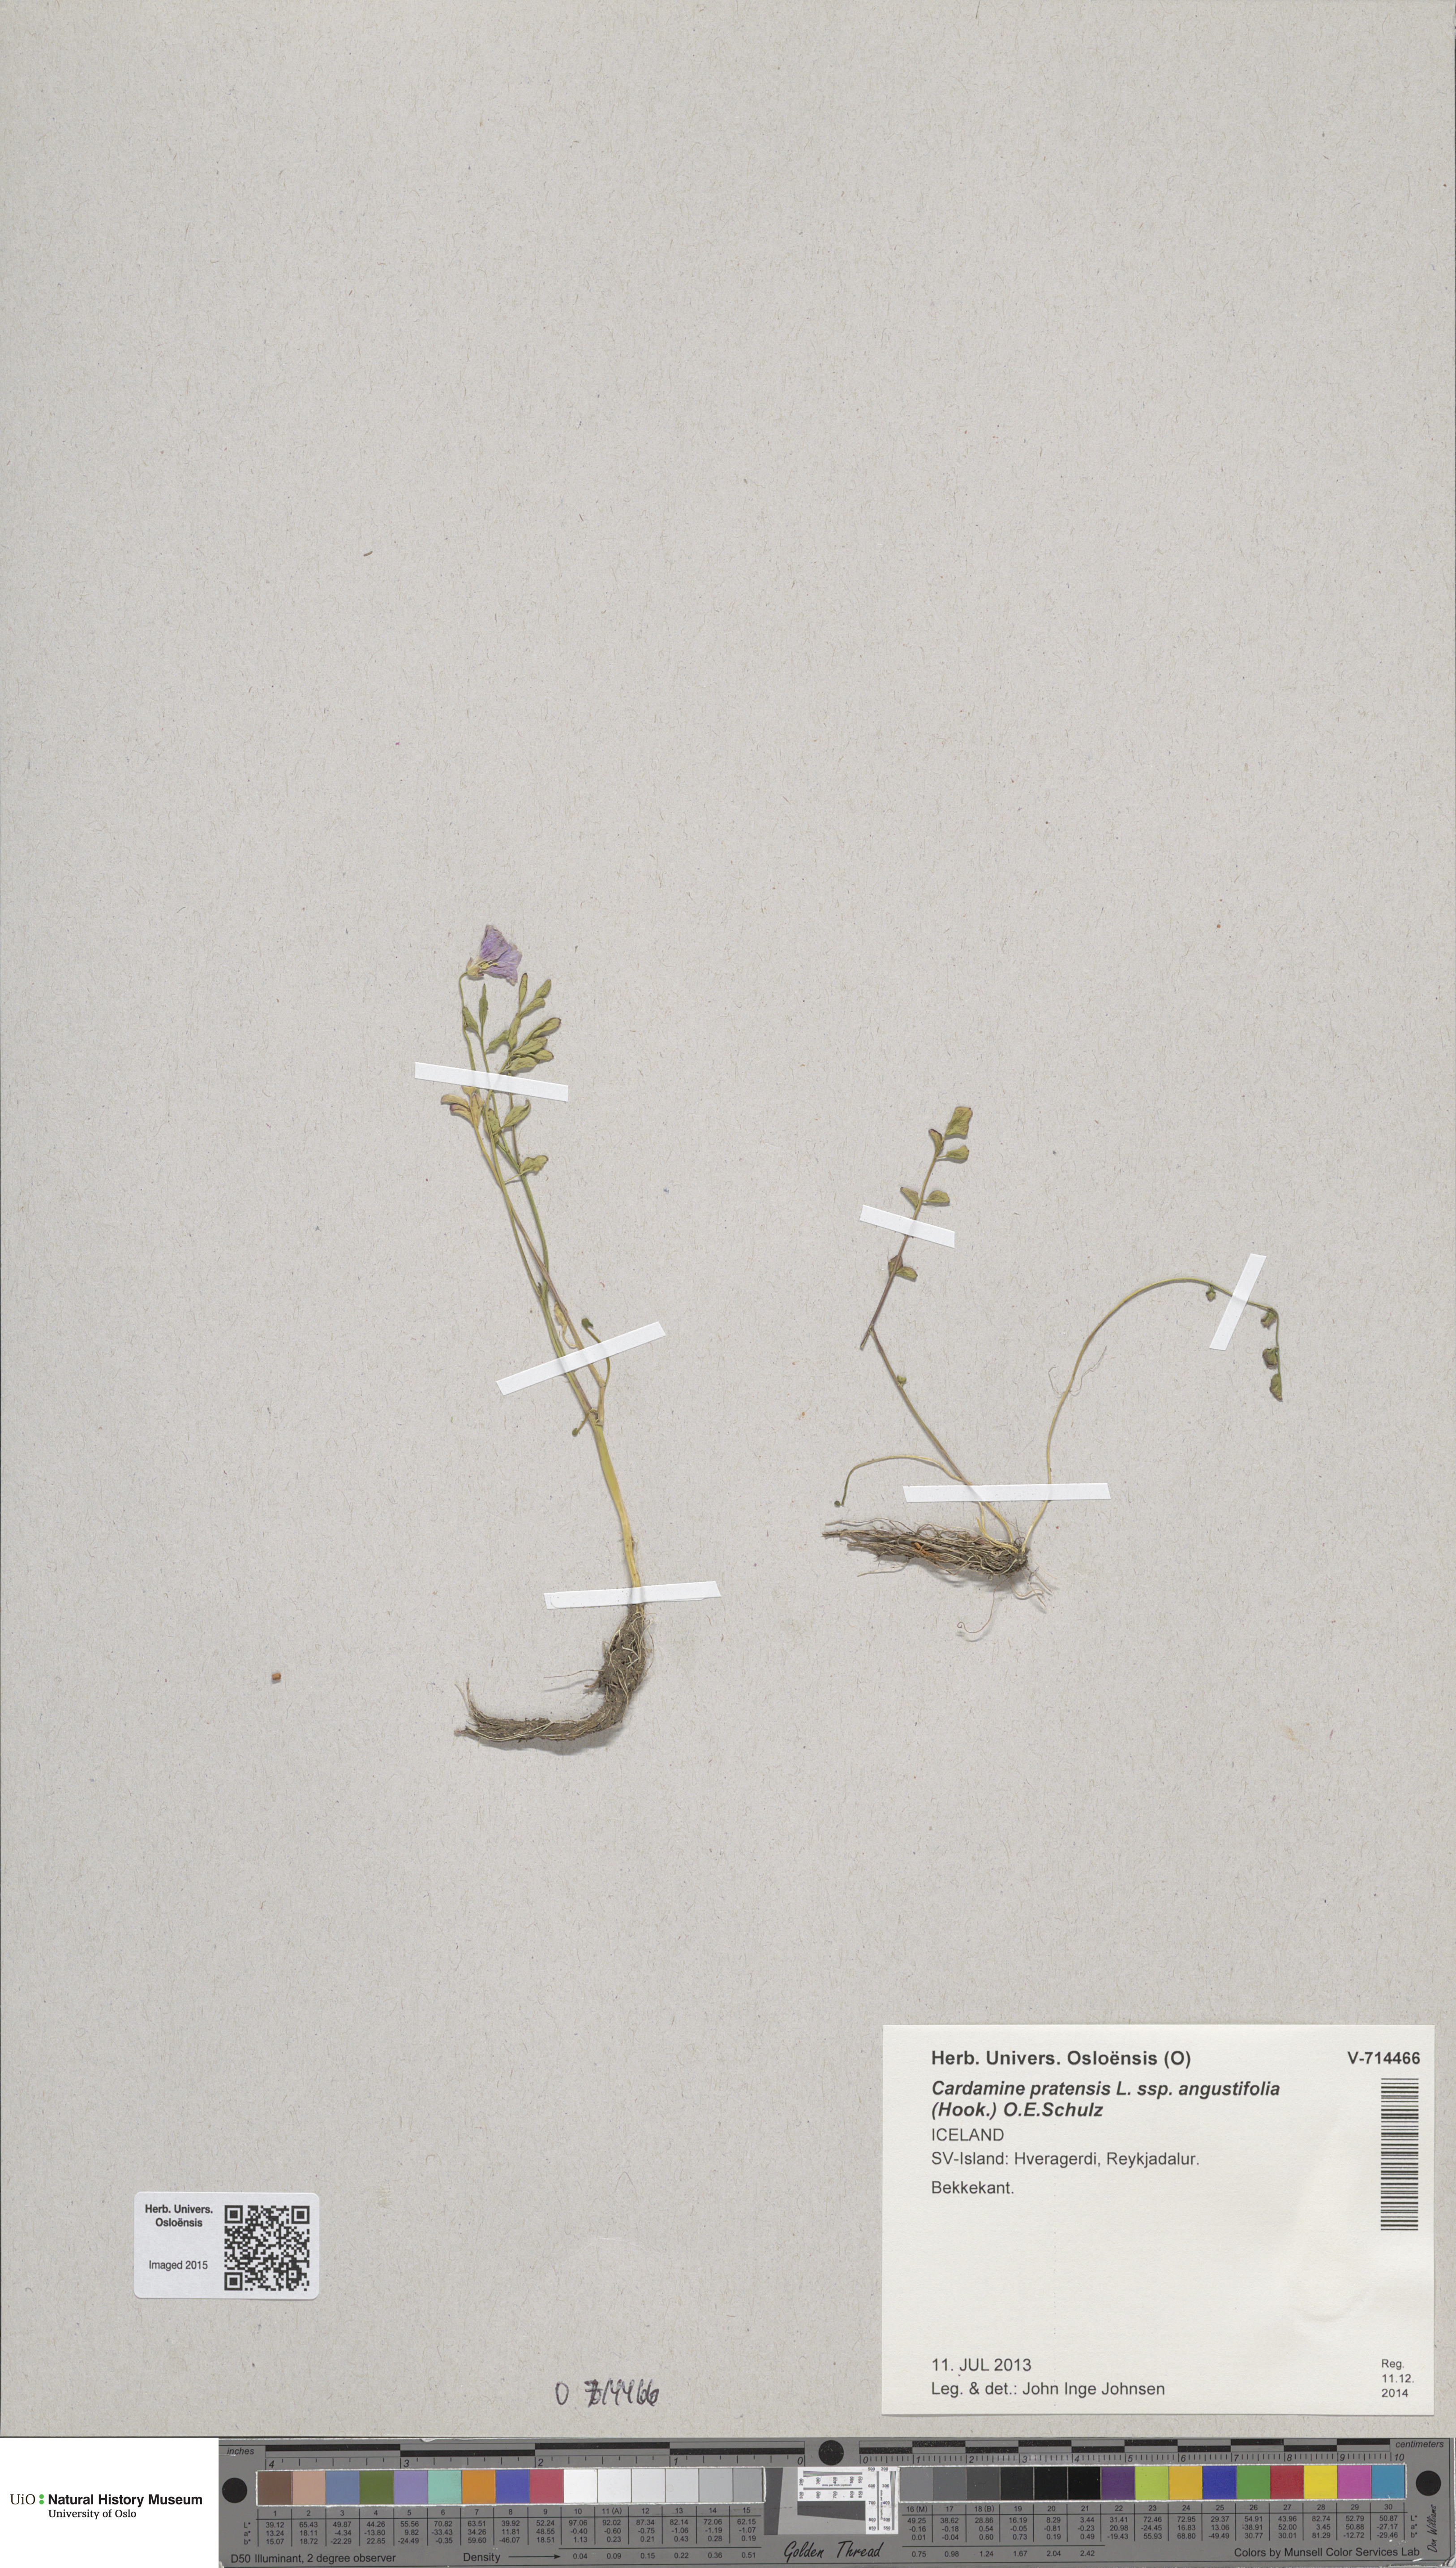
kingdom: Plantae
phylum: Tracheophyta
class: Magnoliopsida
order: Brassicales
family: Brassicaceae
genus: Cardamine
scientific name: Cardamine nymanii
